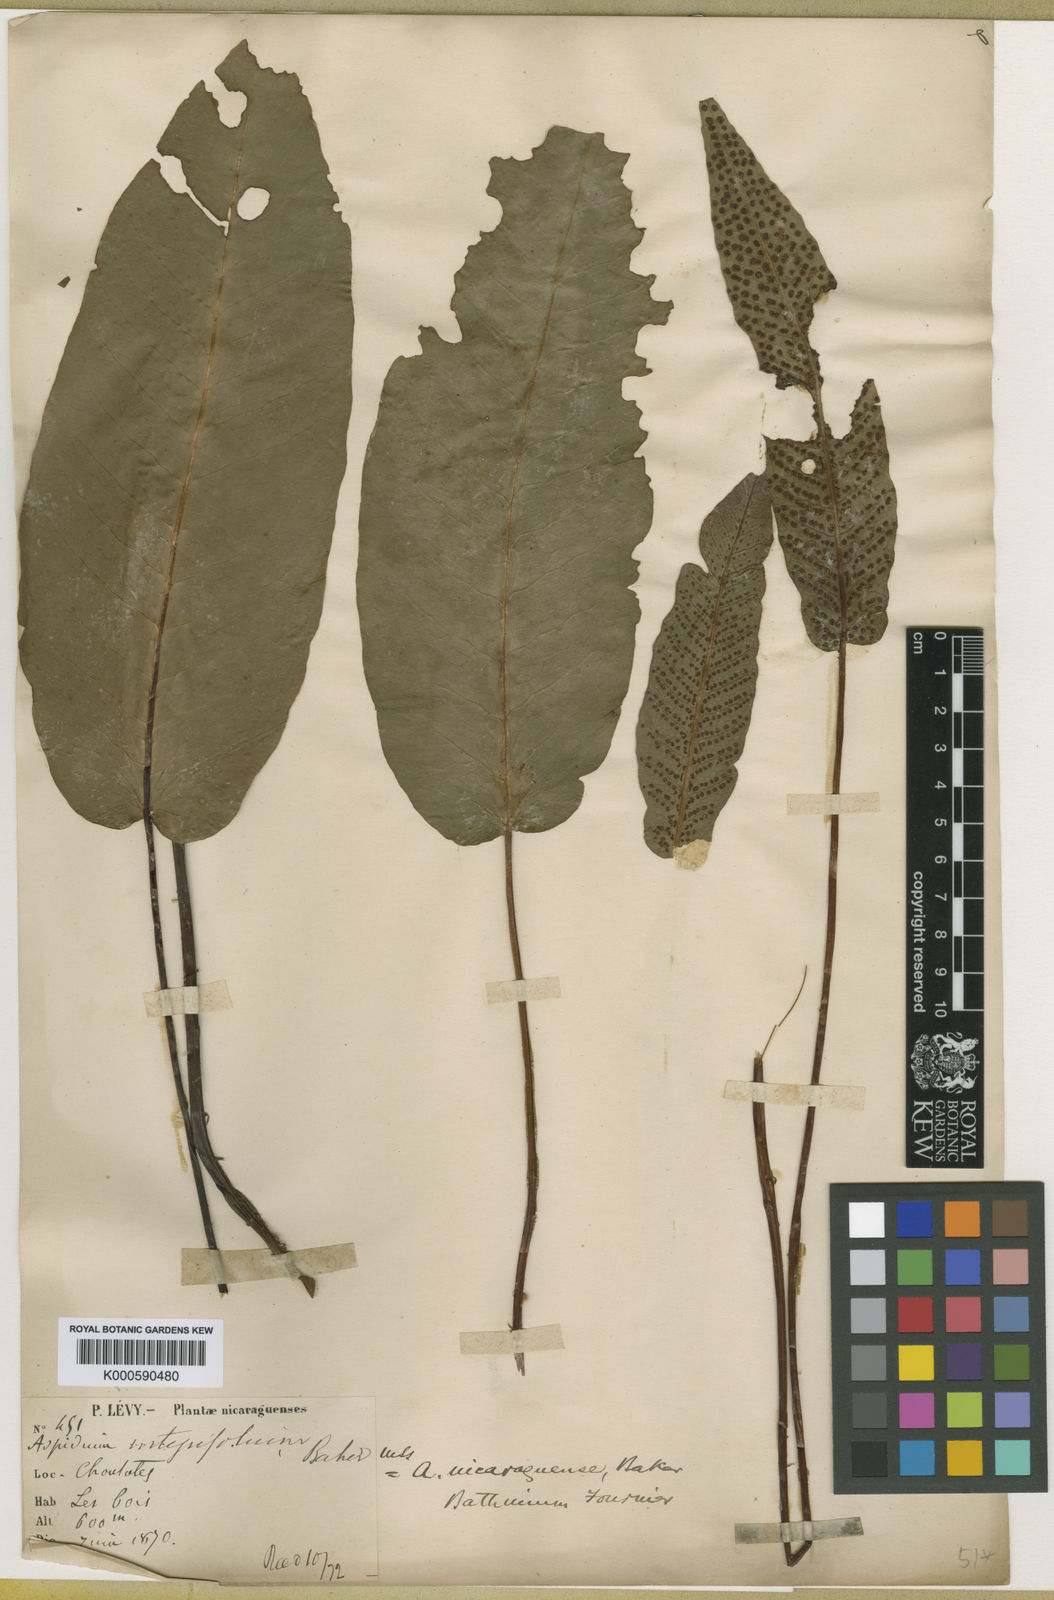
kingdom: Plantae
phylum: Tracheophyta
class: Polypodiopsida
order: Polypodiales
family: Tectariaceae
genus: Tectaria
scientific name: Tectaria nicaraguensis
